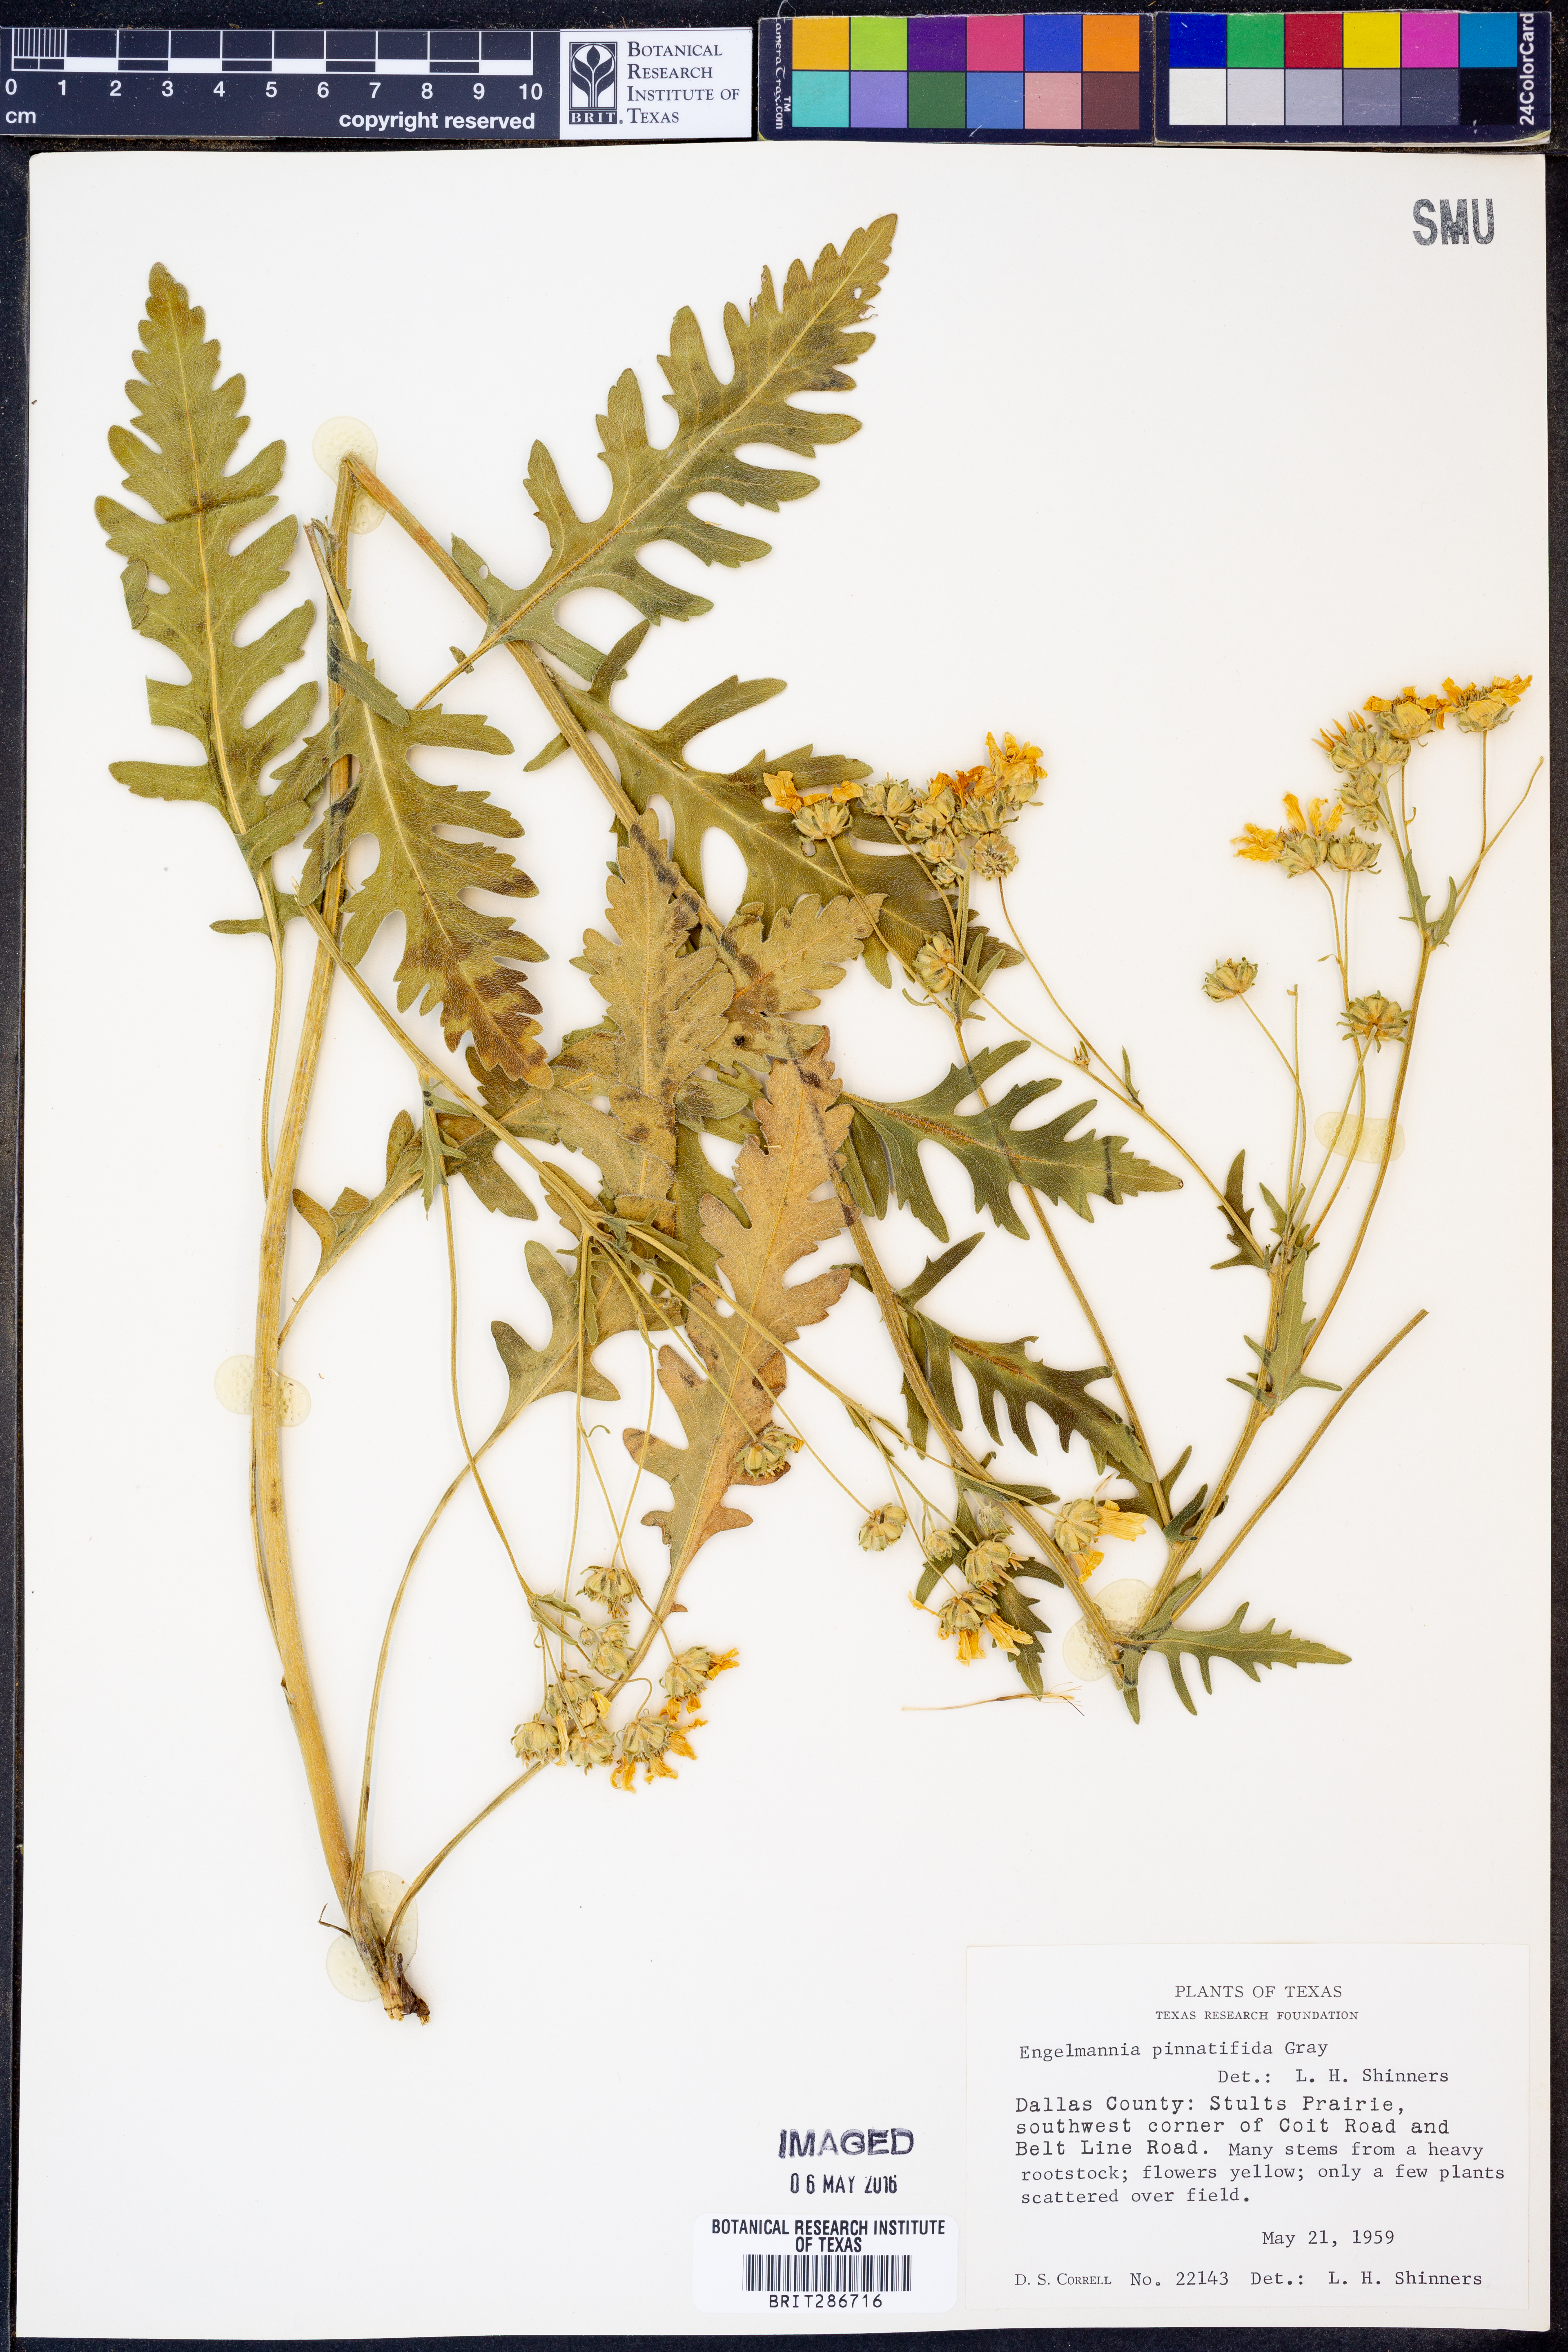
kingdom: Plantae
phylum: Tracheophyta
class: Magnoliopsida
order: Asterales
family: Asteraceae
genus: Engelmannia
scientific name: Engelmannia peristenia
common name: Engelmann's daisy
